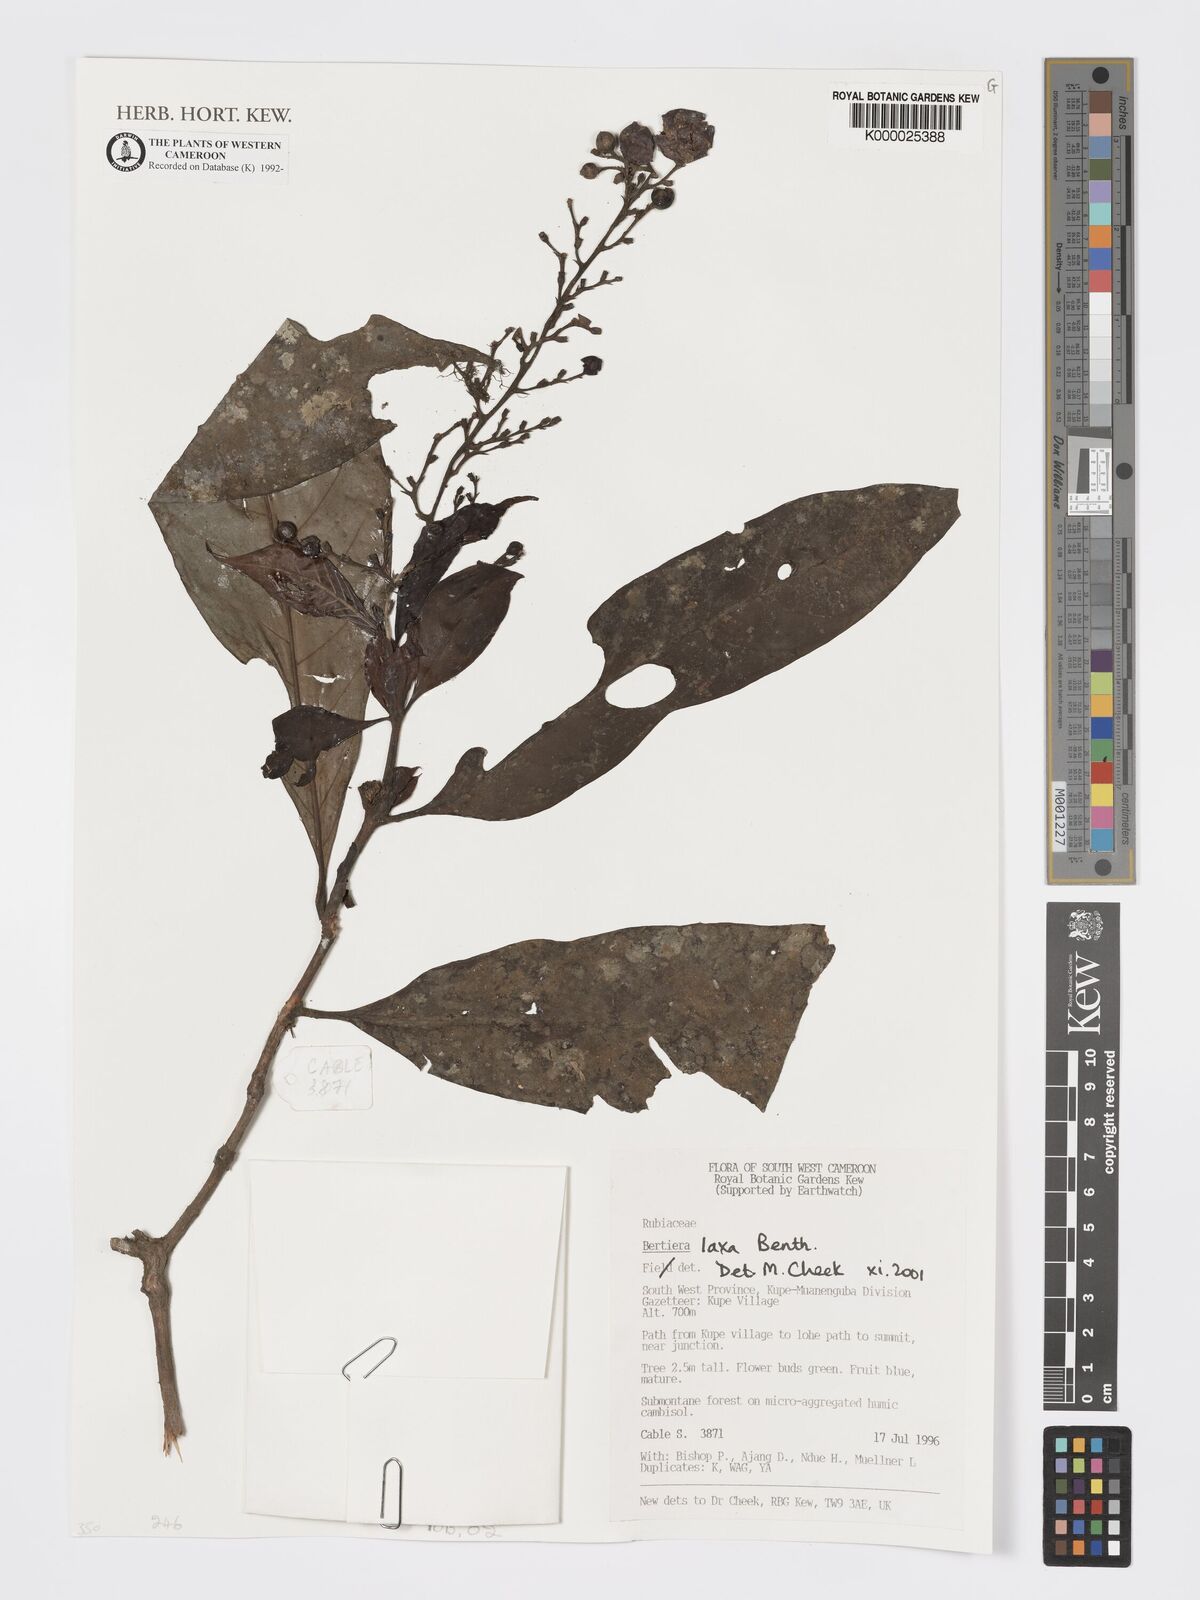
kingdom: Plantae
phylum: Tracheophyta
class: Magnoliopsida
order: Gentianales
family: Rubiaceae
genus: Bertiera
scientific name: Bertiera laxa
